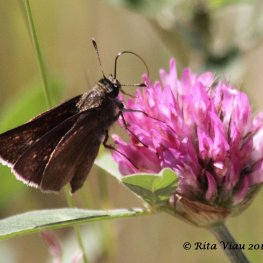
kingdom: Animalia
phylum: Arthropoda
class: Insecta
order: Lepidoptera
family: Hesperiidae
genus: Euphyes
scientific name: Euphyes vestris
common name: Dun Skipper
